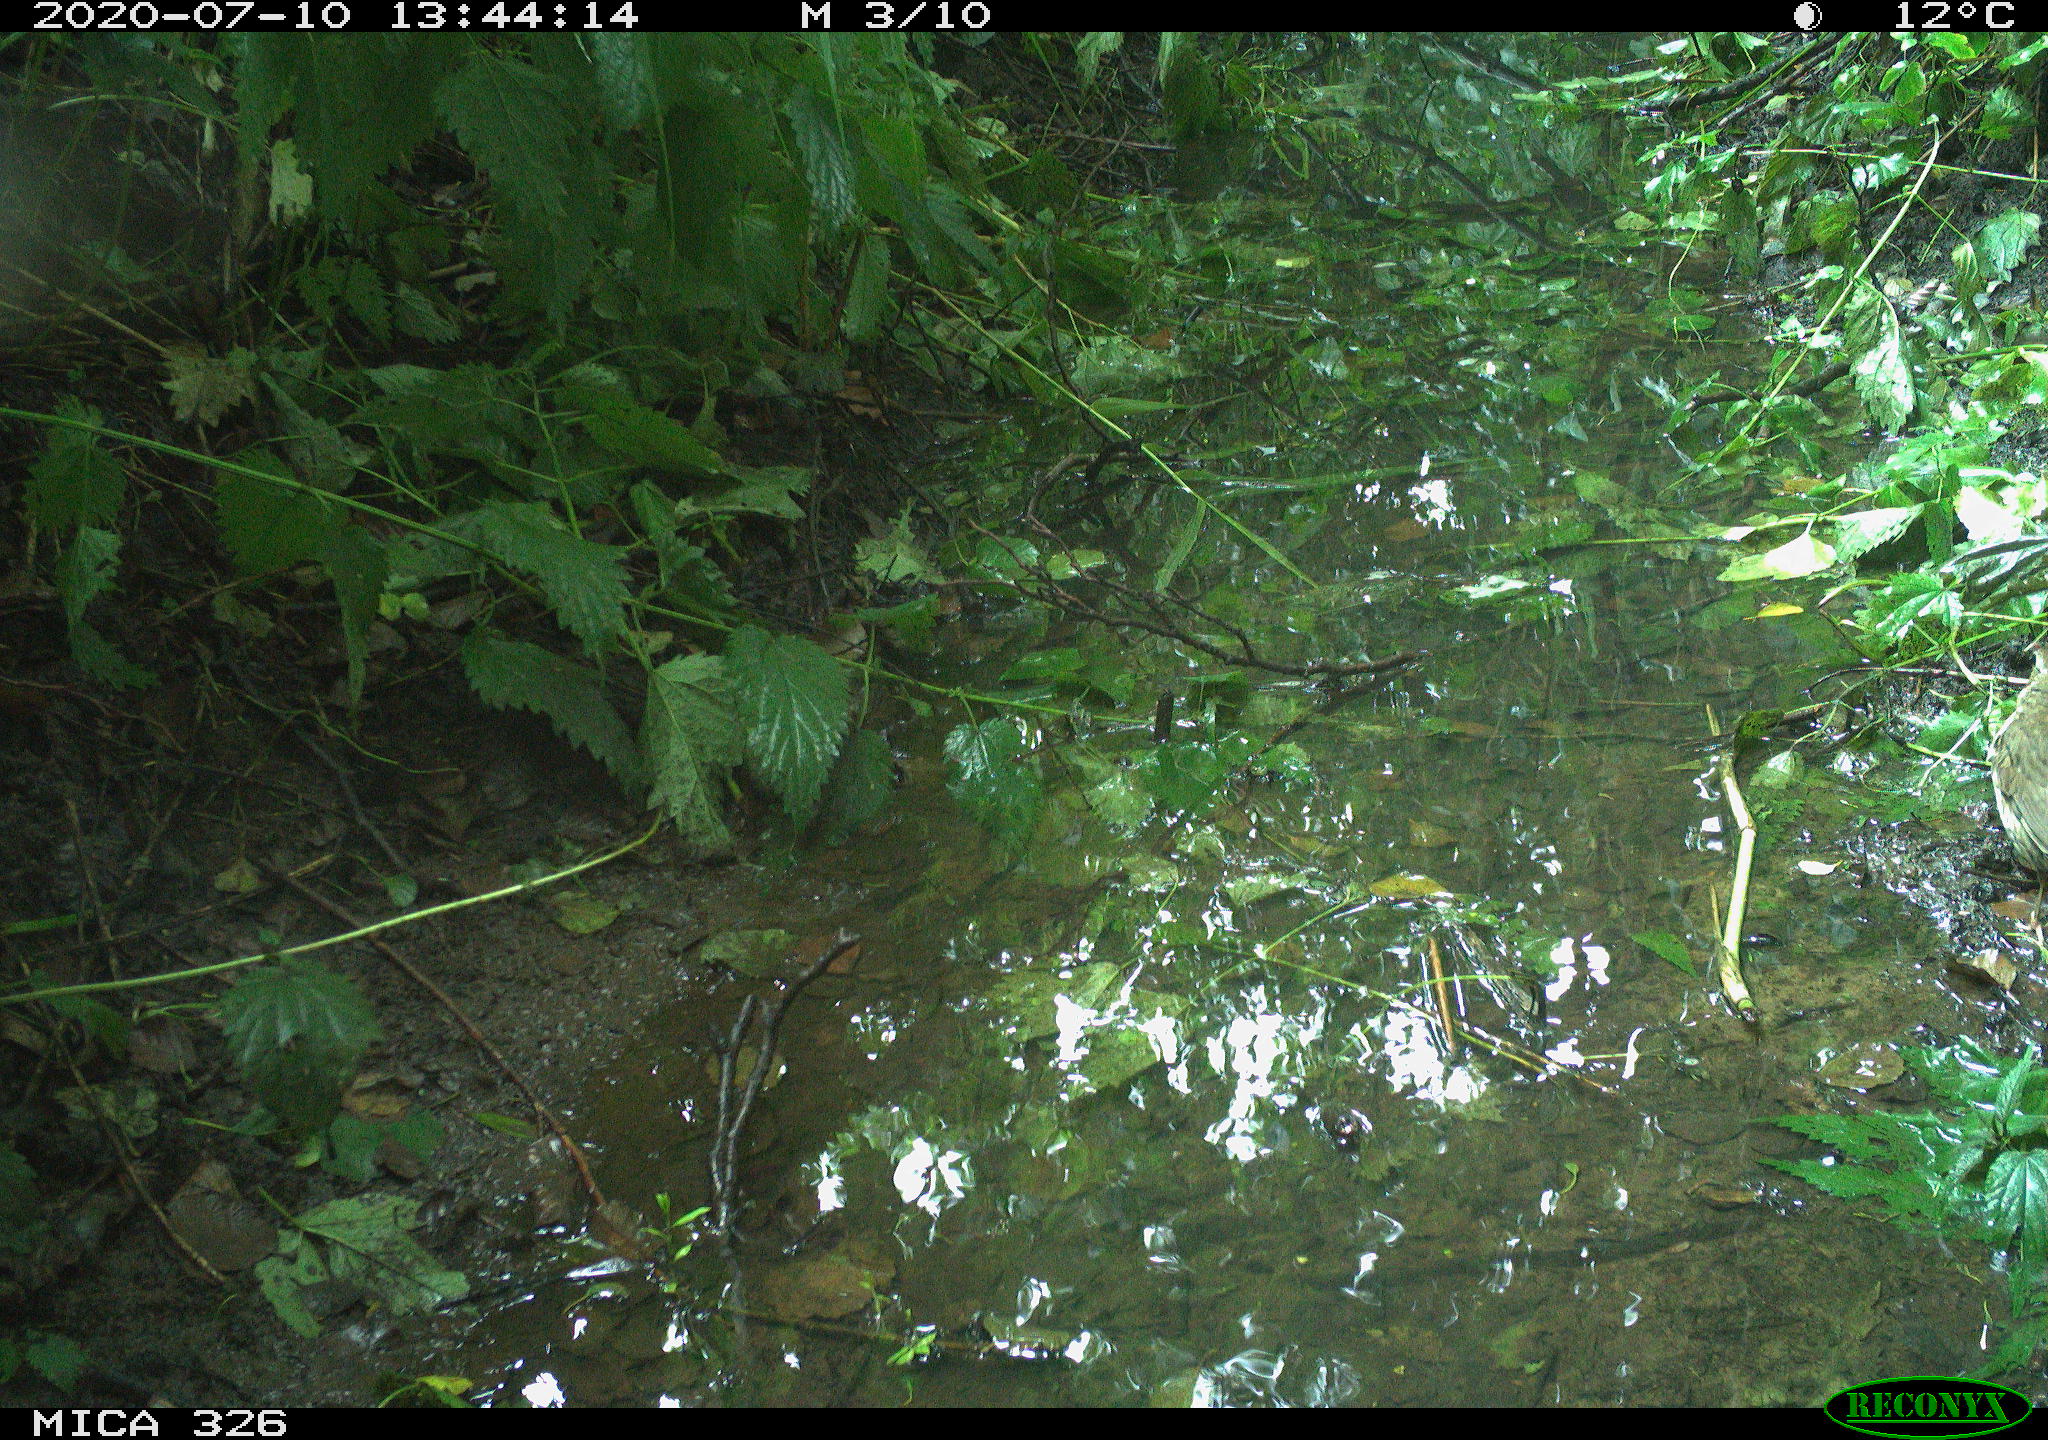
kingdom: Animalia
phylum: Chordata
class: Aves
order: Passeriformes
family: Turdidae
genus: Turdus
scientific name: Turdus philomelos
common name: Song thrush
